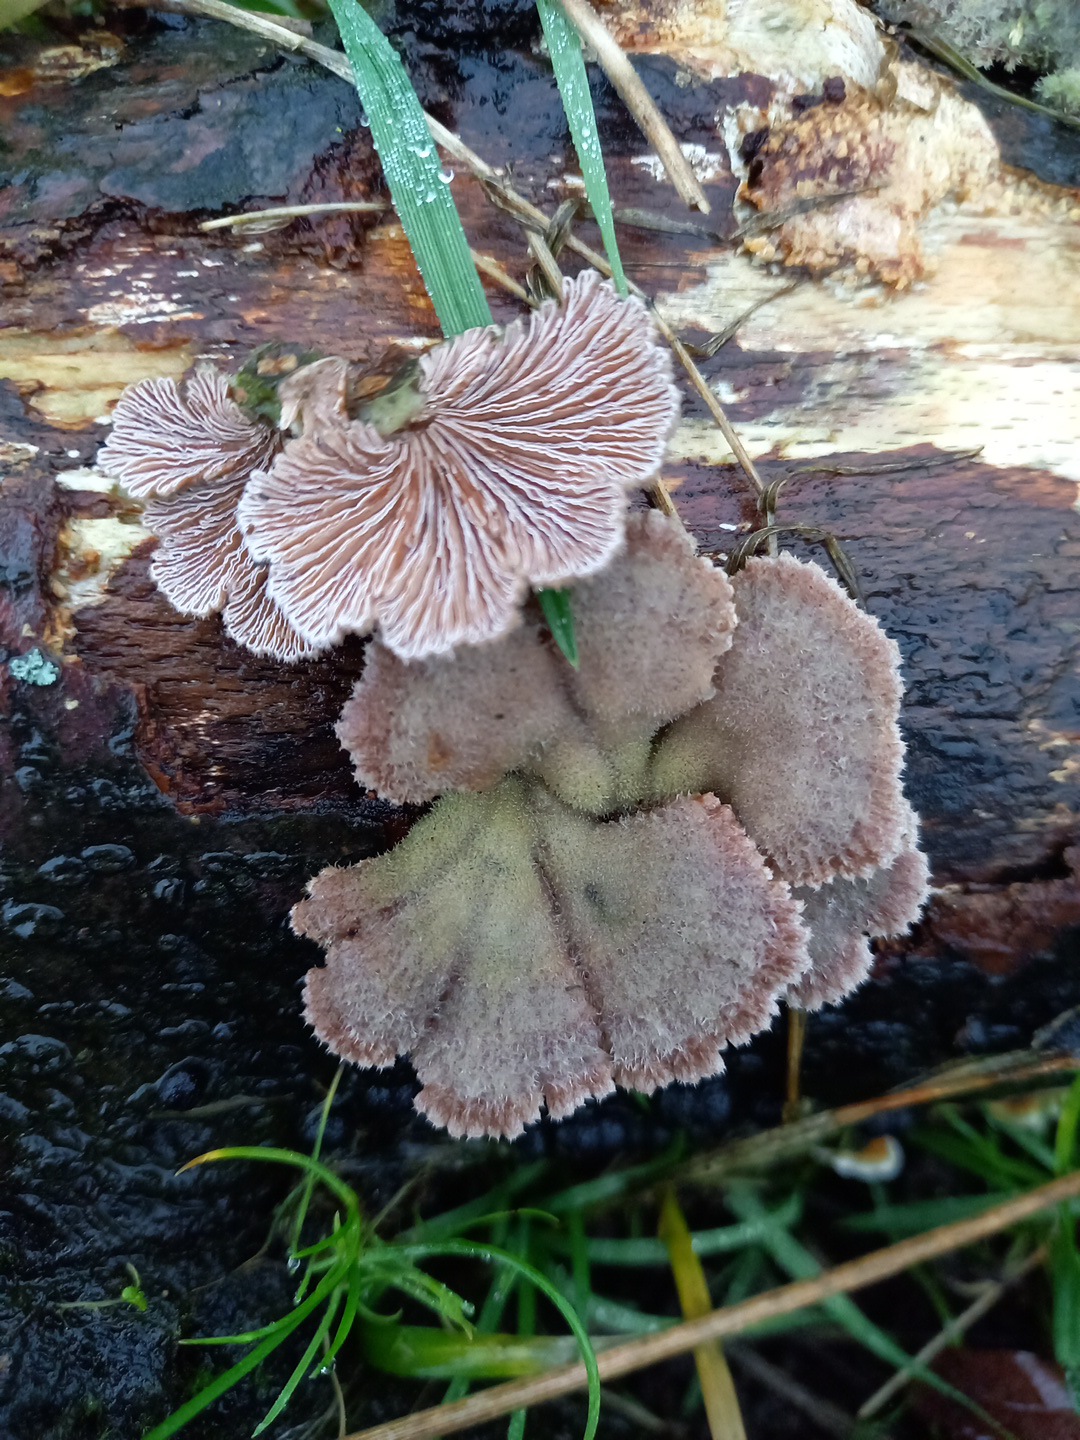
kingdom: Fungi
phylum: Basidiomycota
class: Agaricomycetes
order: Agaricales
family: Schizophyllaceae
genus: Schizophyllum
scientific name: Schizophyllum commune
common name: kløvblad
